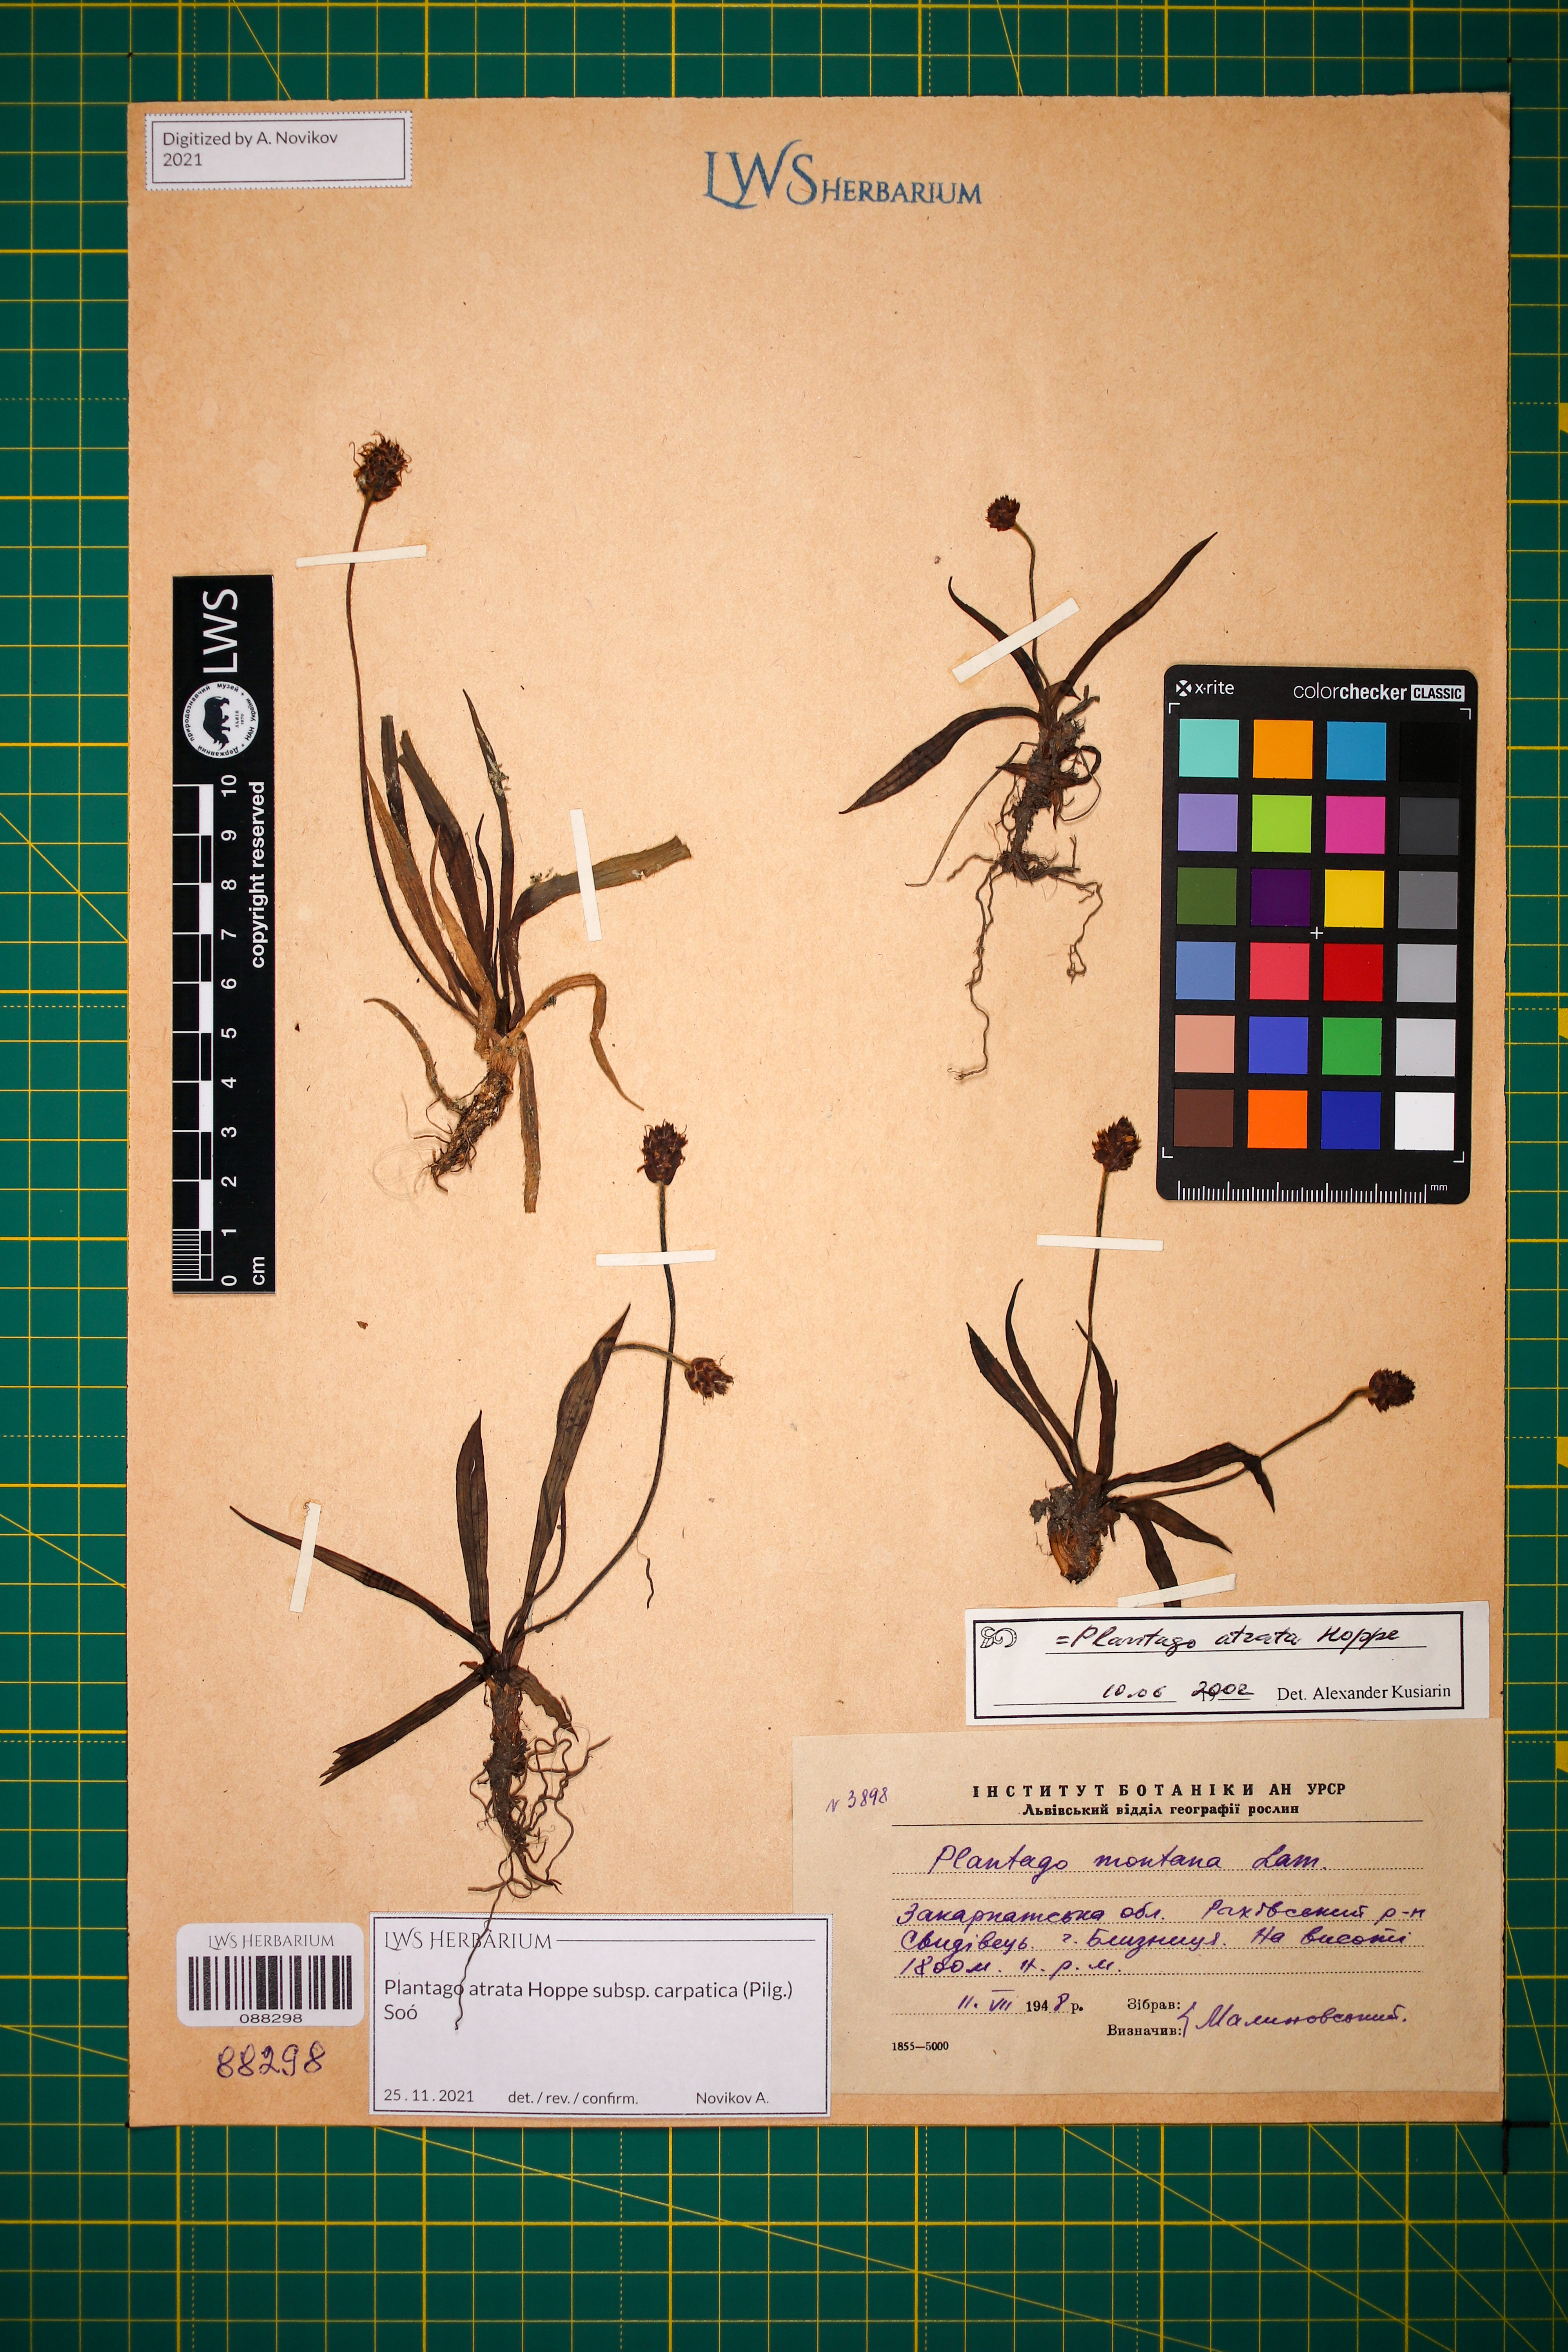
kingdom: Plantae
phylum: Tracheophyta
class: Magnoliopsida
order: Lamiales
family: Plantaginaceae
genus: Plantago
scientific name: Plantago atrata
